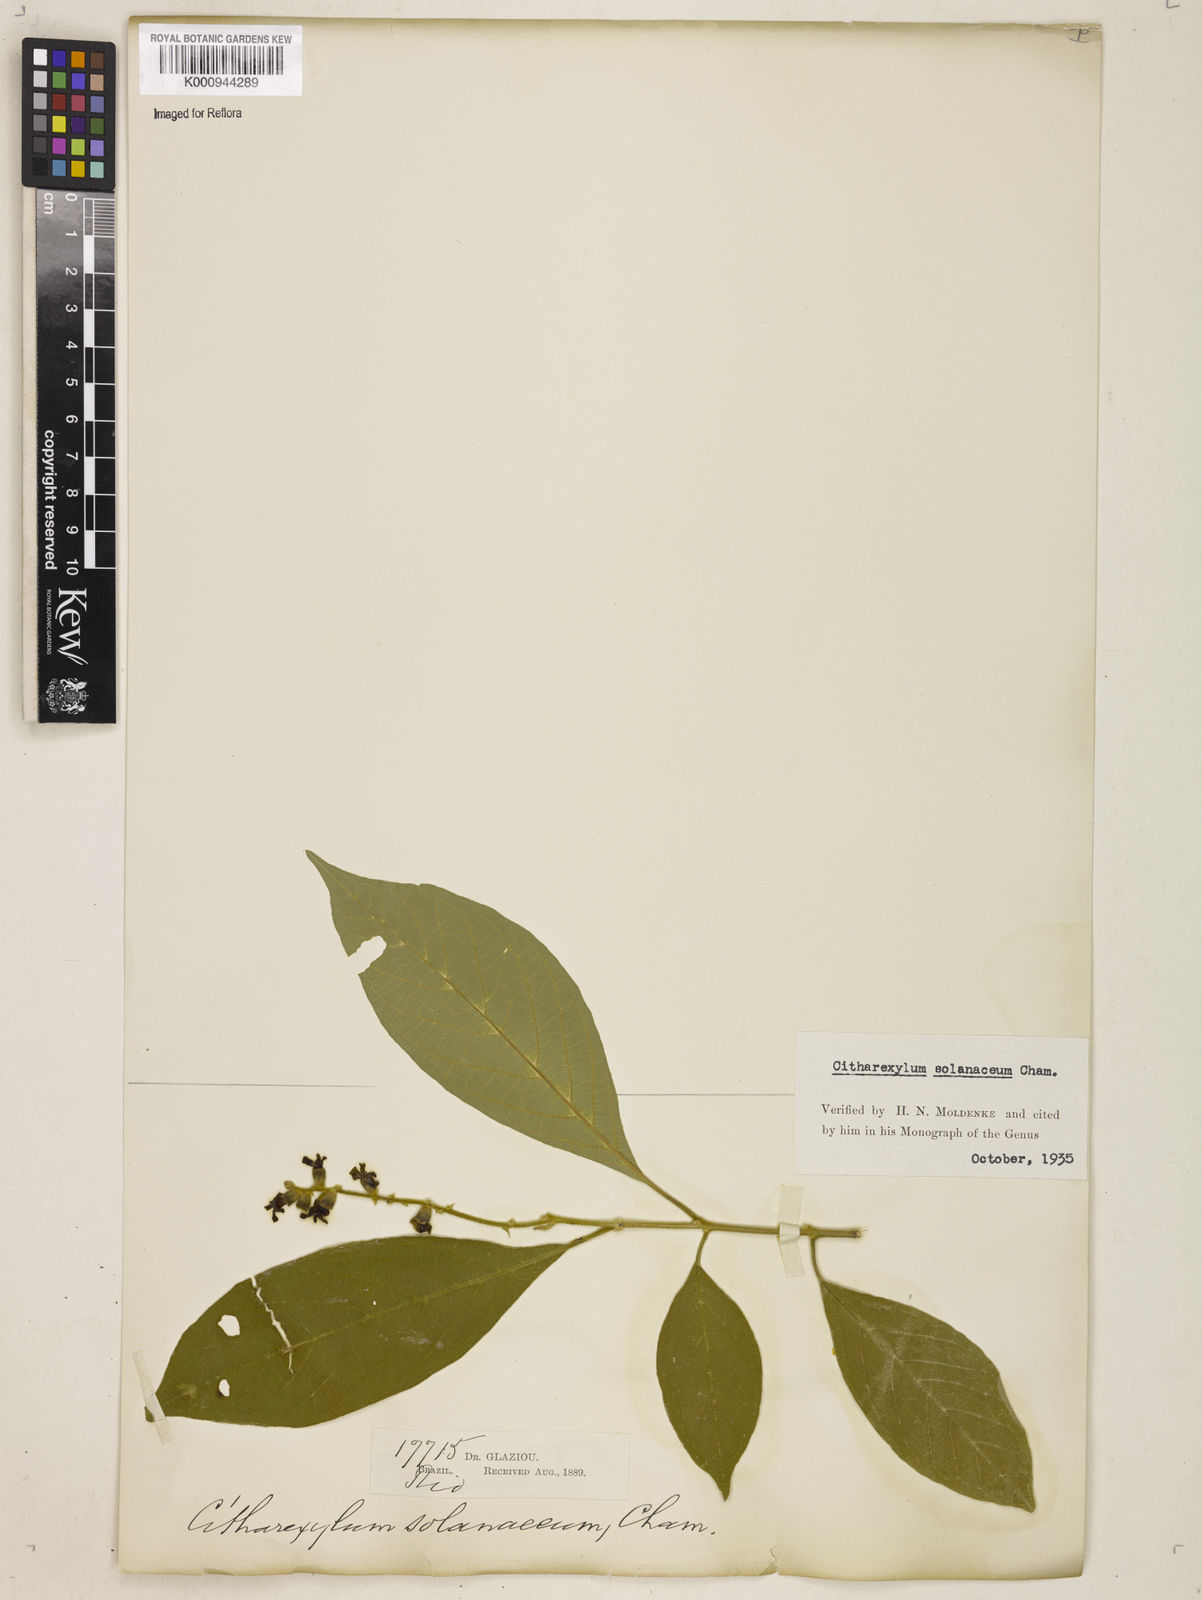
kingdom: Plantae
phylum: Tracheophyta
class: Magnoliopsida
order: Lamiales
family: Verbenaceae
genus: Citharexylum
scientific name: Citharexylum solanaceum
